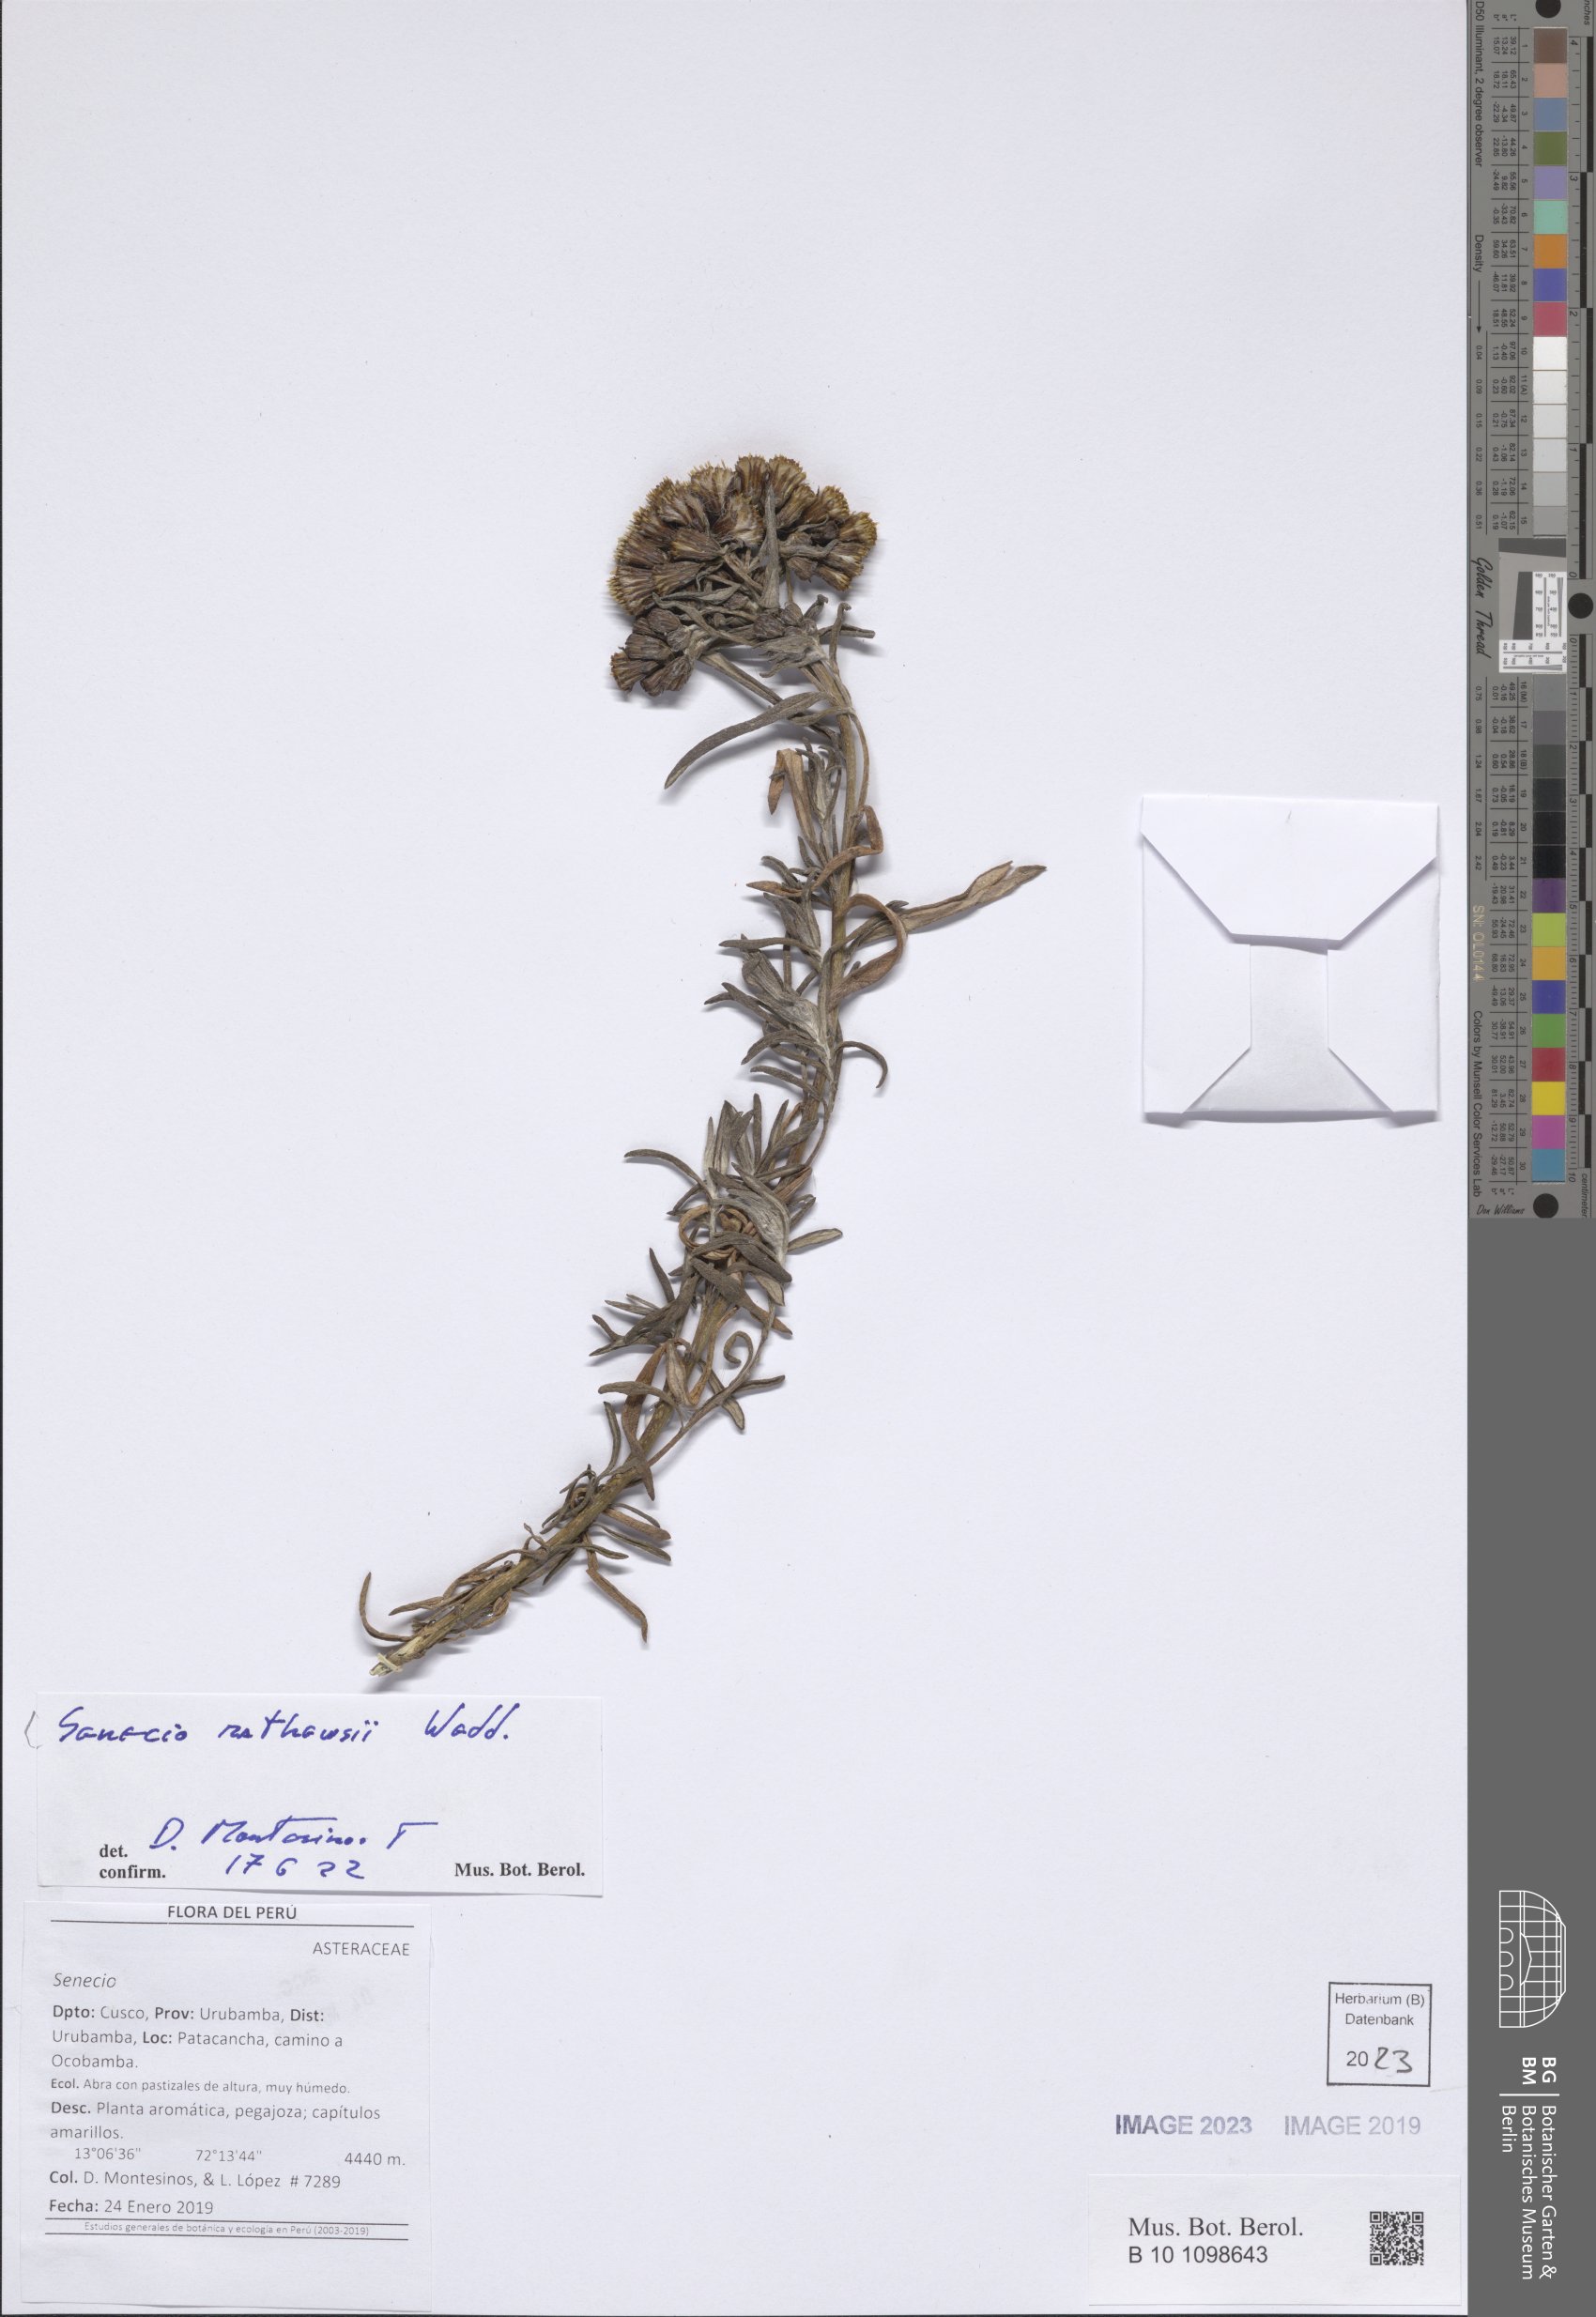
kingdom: Plantae
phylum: Tracheophyta
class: Magnoliopsida
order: Asterales
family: Asteraceae
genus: Senecio
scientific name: Senecio mathewsii
